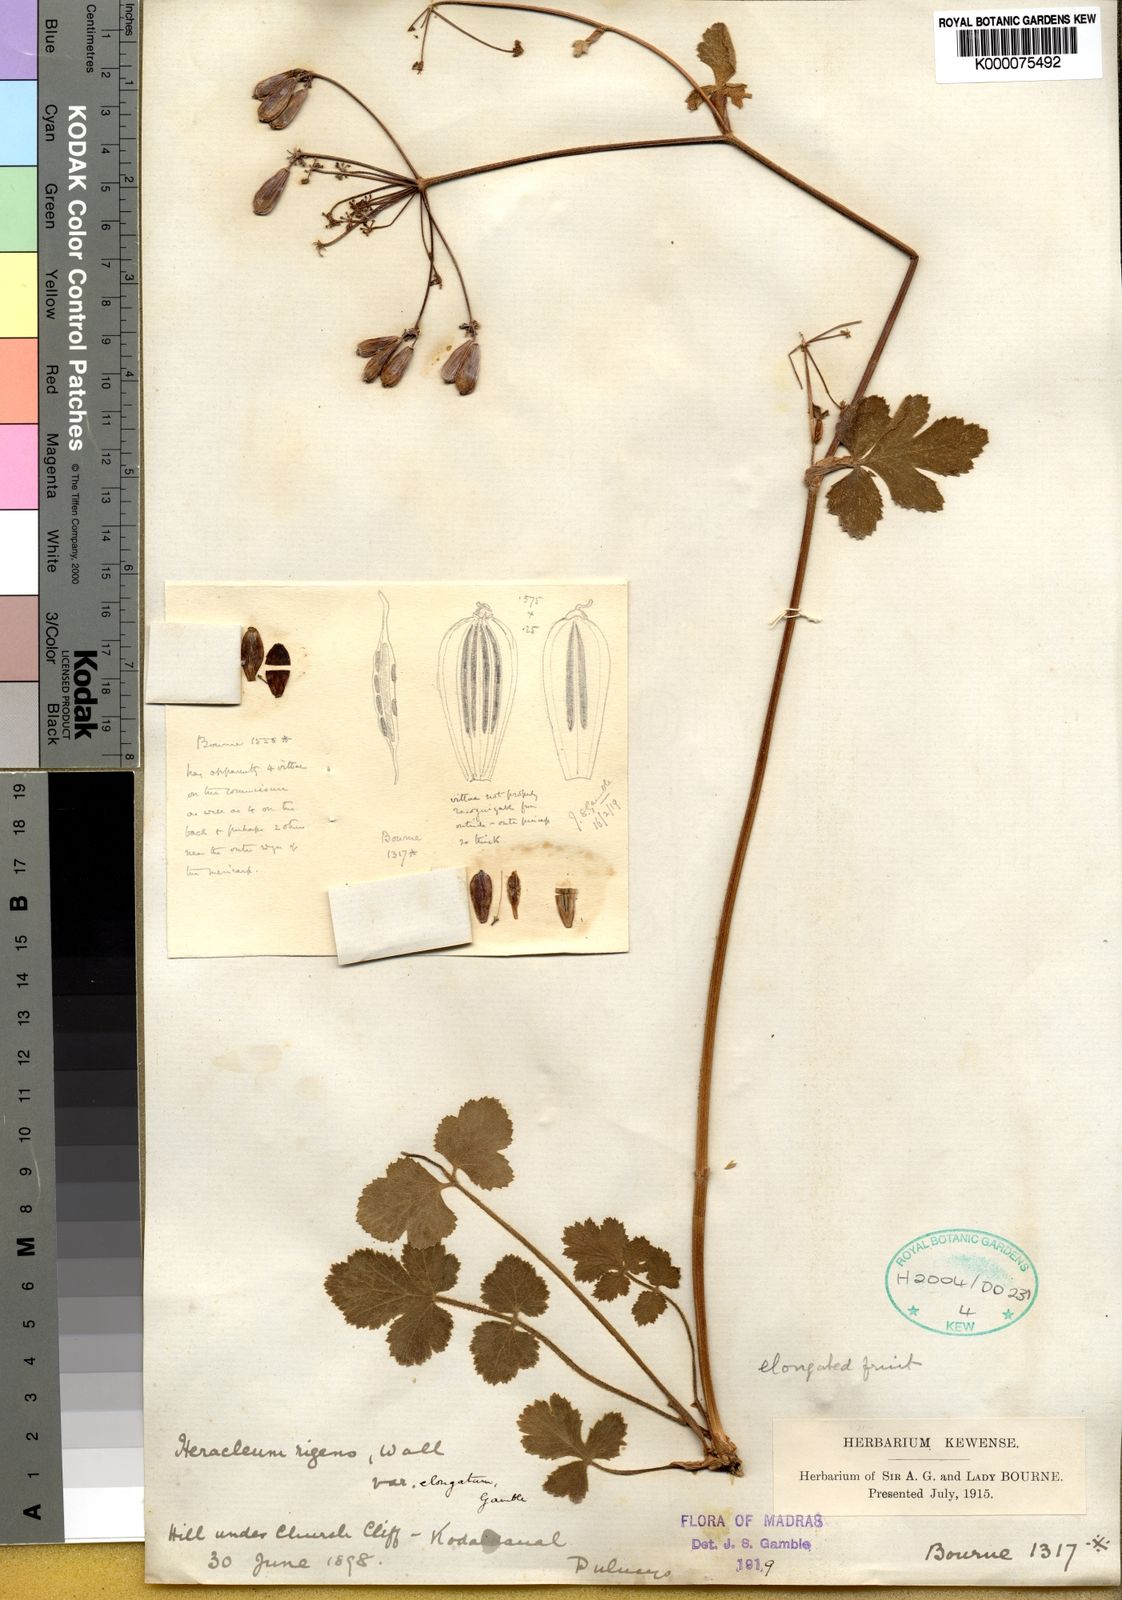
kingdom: Plantae
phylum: Tracheophyta
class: Magnoliopsida
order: Apiales
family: Apiaceae
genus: Heracleum
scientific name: Heracleum
